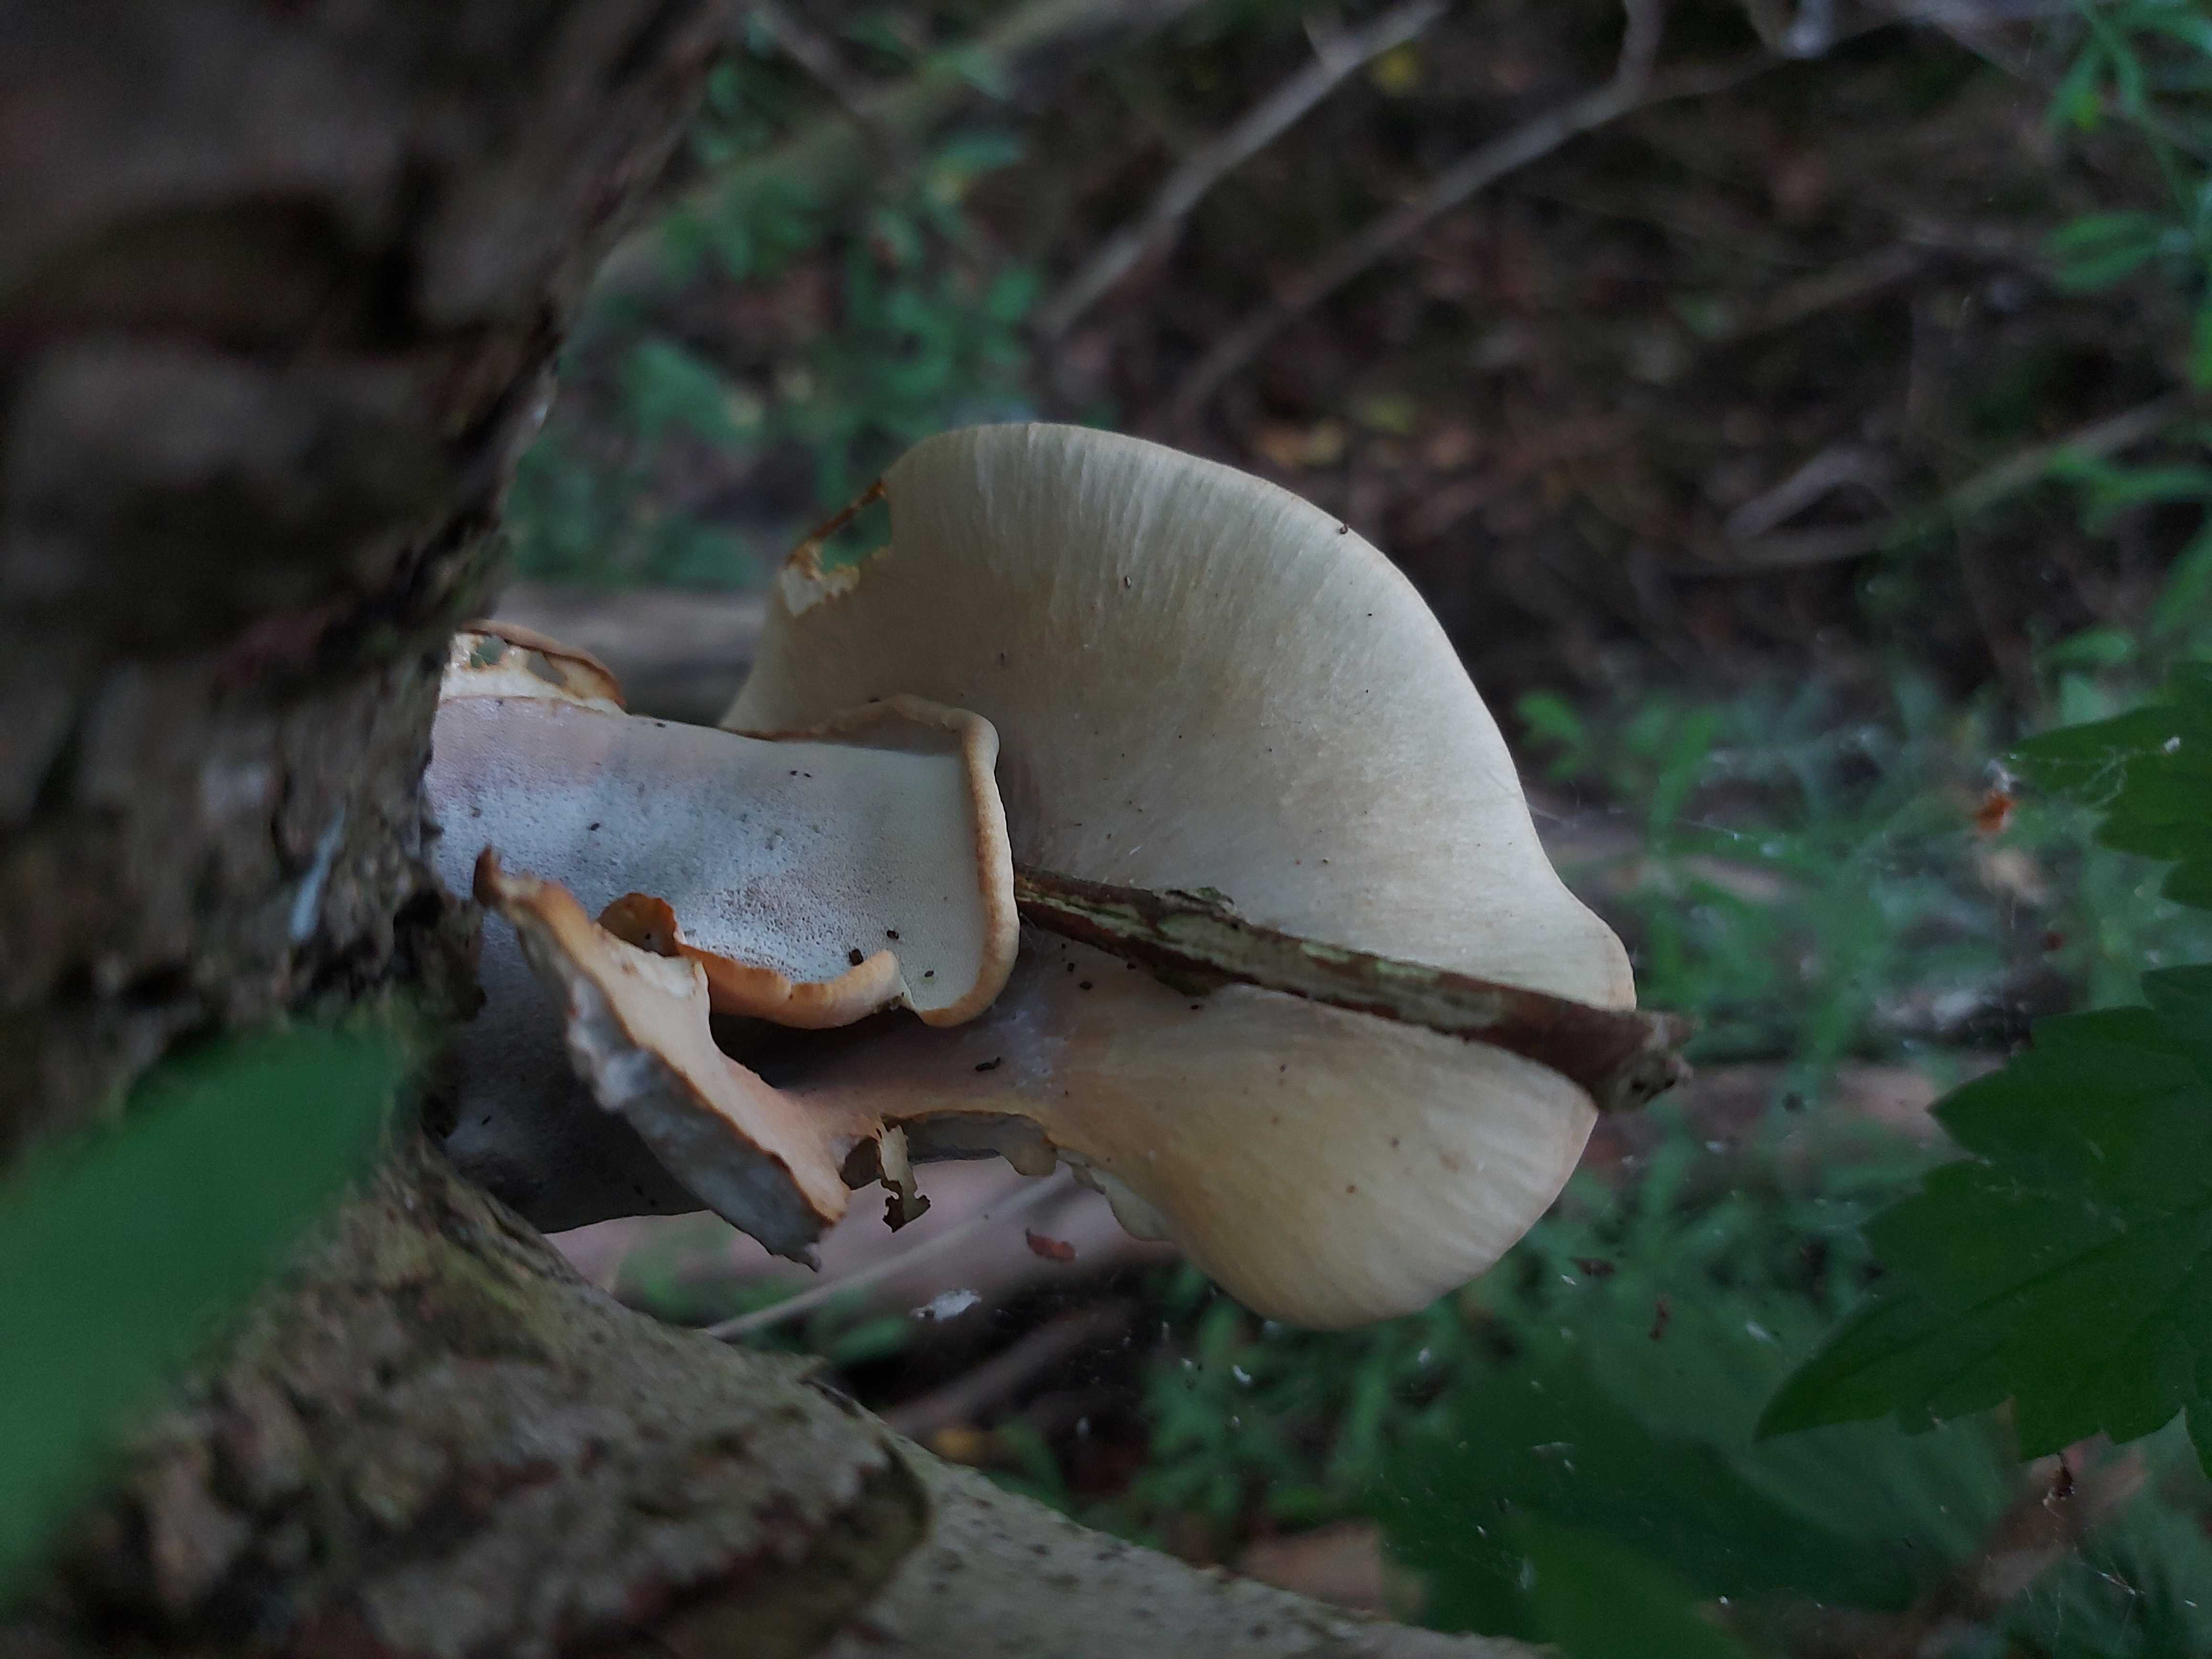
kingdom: Fungi
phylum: Basidiomycota
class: Agaricomycetes
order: Polyporales
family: Polyporaceae
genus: Cerioporus
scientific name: Cerioporus varius
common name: foranderlig stilkporesvamp
